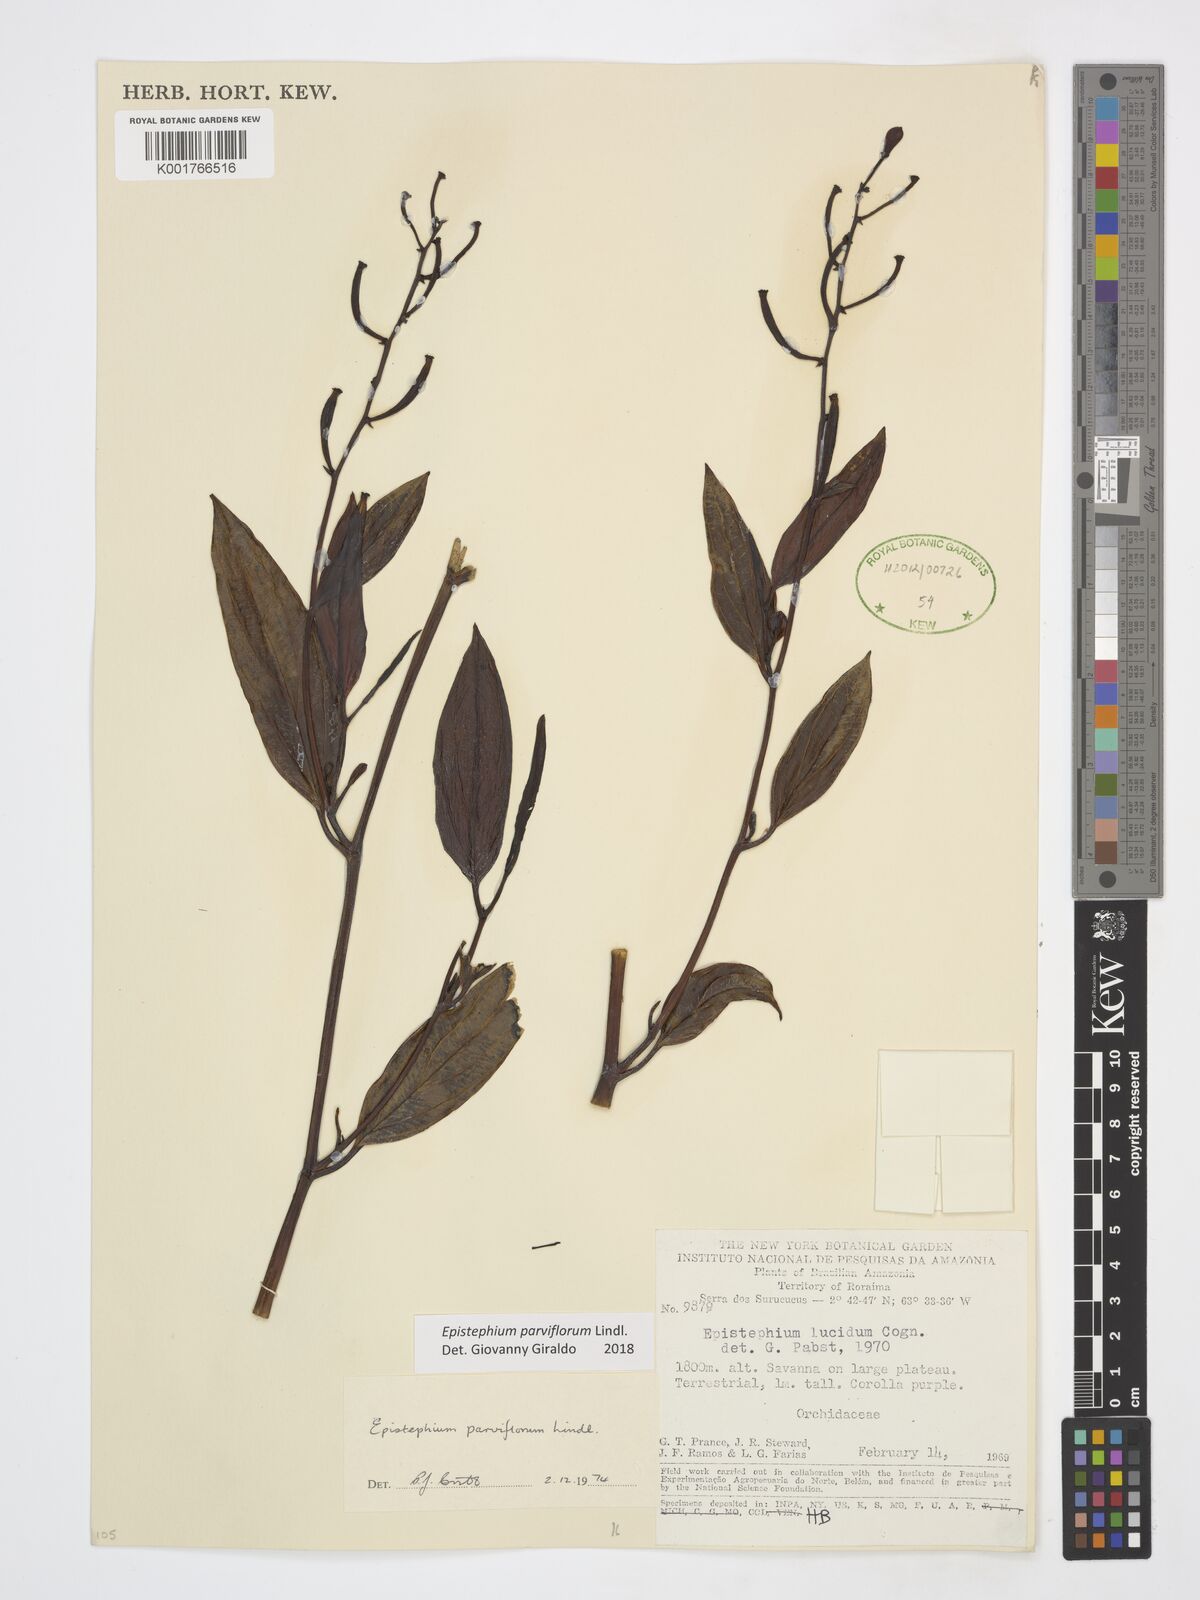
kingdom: Plantae
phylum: Tracheophyta
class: Liliopsida
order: Asparagales
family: Orchidaceae
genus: Epistephium
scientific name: Epistephium parviflorum
